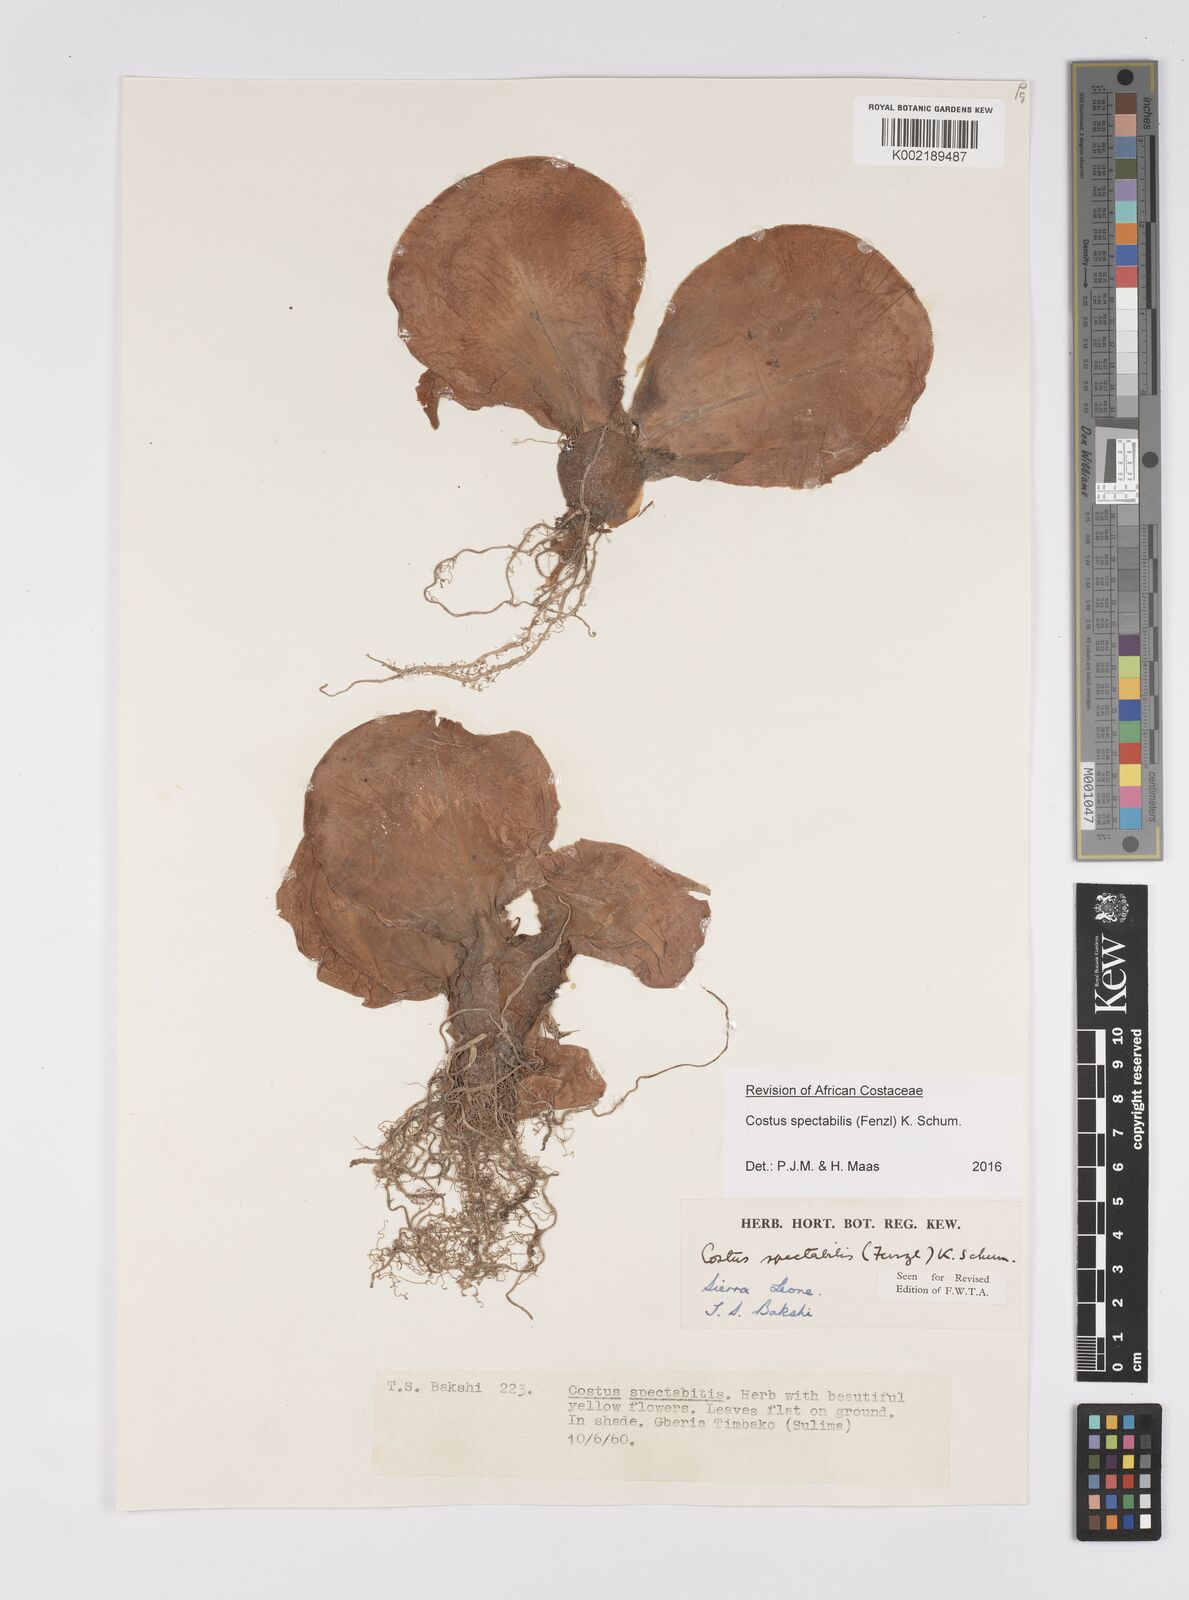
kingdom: Plantae
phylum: Tracheophyta
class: Liliopsida
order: Zingiberales
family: Costaceae
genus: Costus
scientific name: Costus spectabilis
